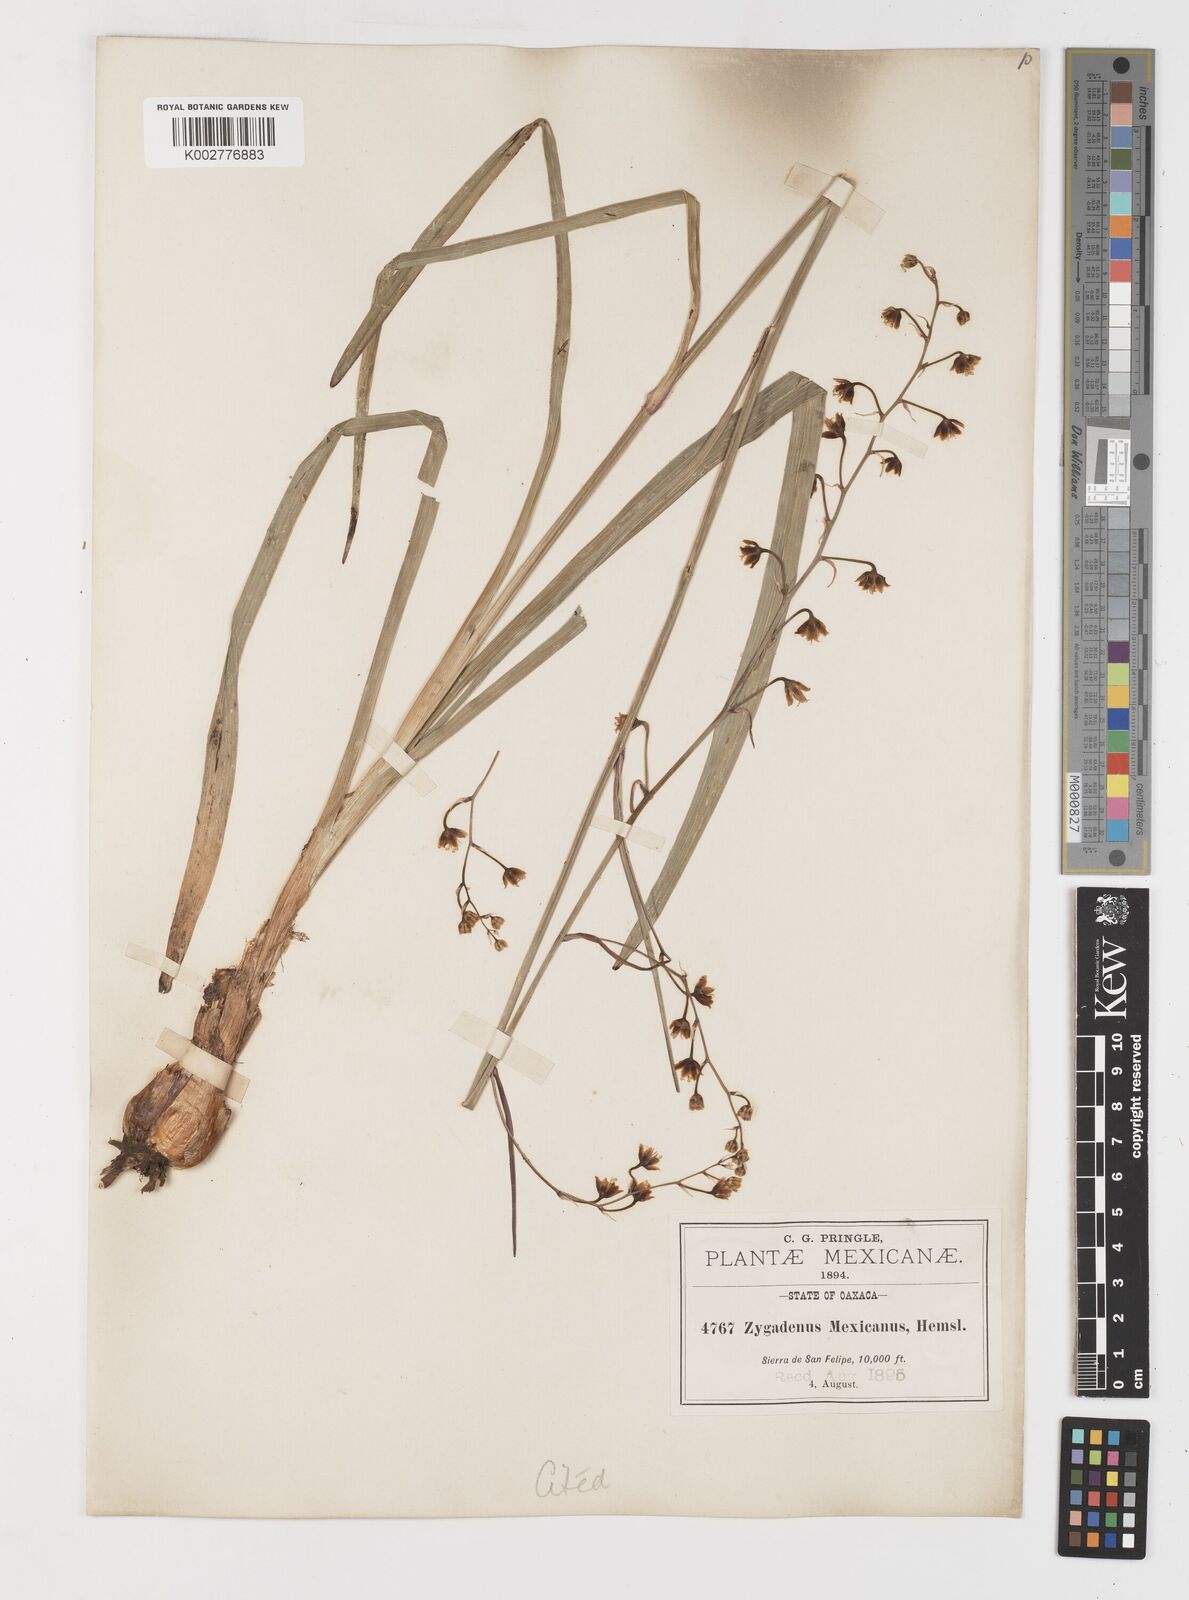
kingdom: Plantae
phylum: Tracheophyta
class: Liliopsida
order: Liliales
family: Melanthiaceae
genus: Anticlea
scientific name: Anticlea virescens
